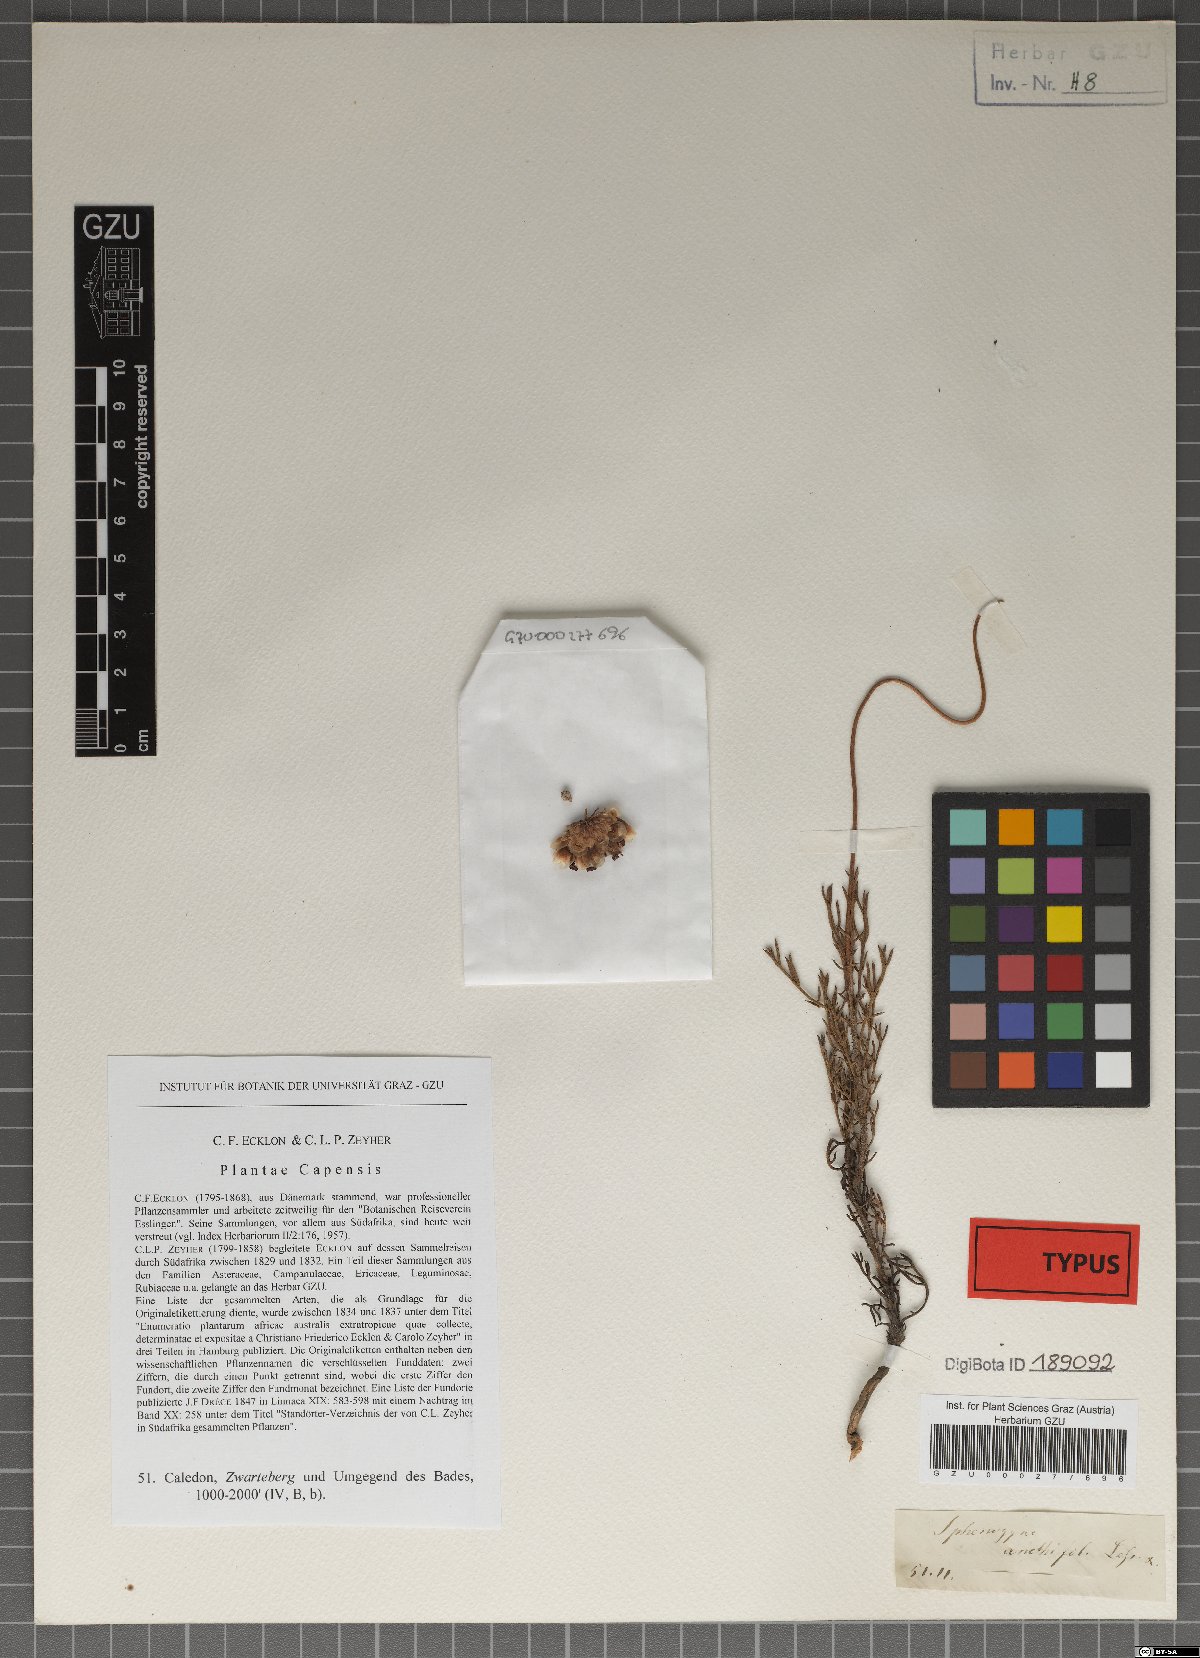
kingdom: Plantae
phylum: Tracheophyta
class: Magnoliopsida
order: Asterales
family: Asteraceae
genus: Ursinia
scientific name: Ursinia paleacea
